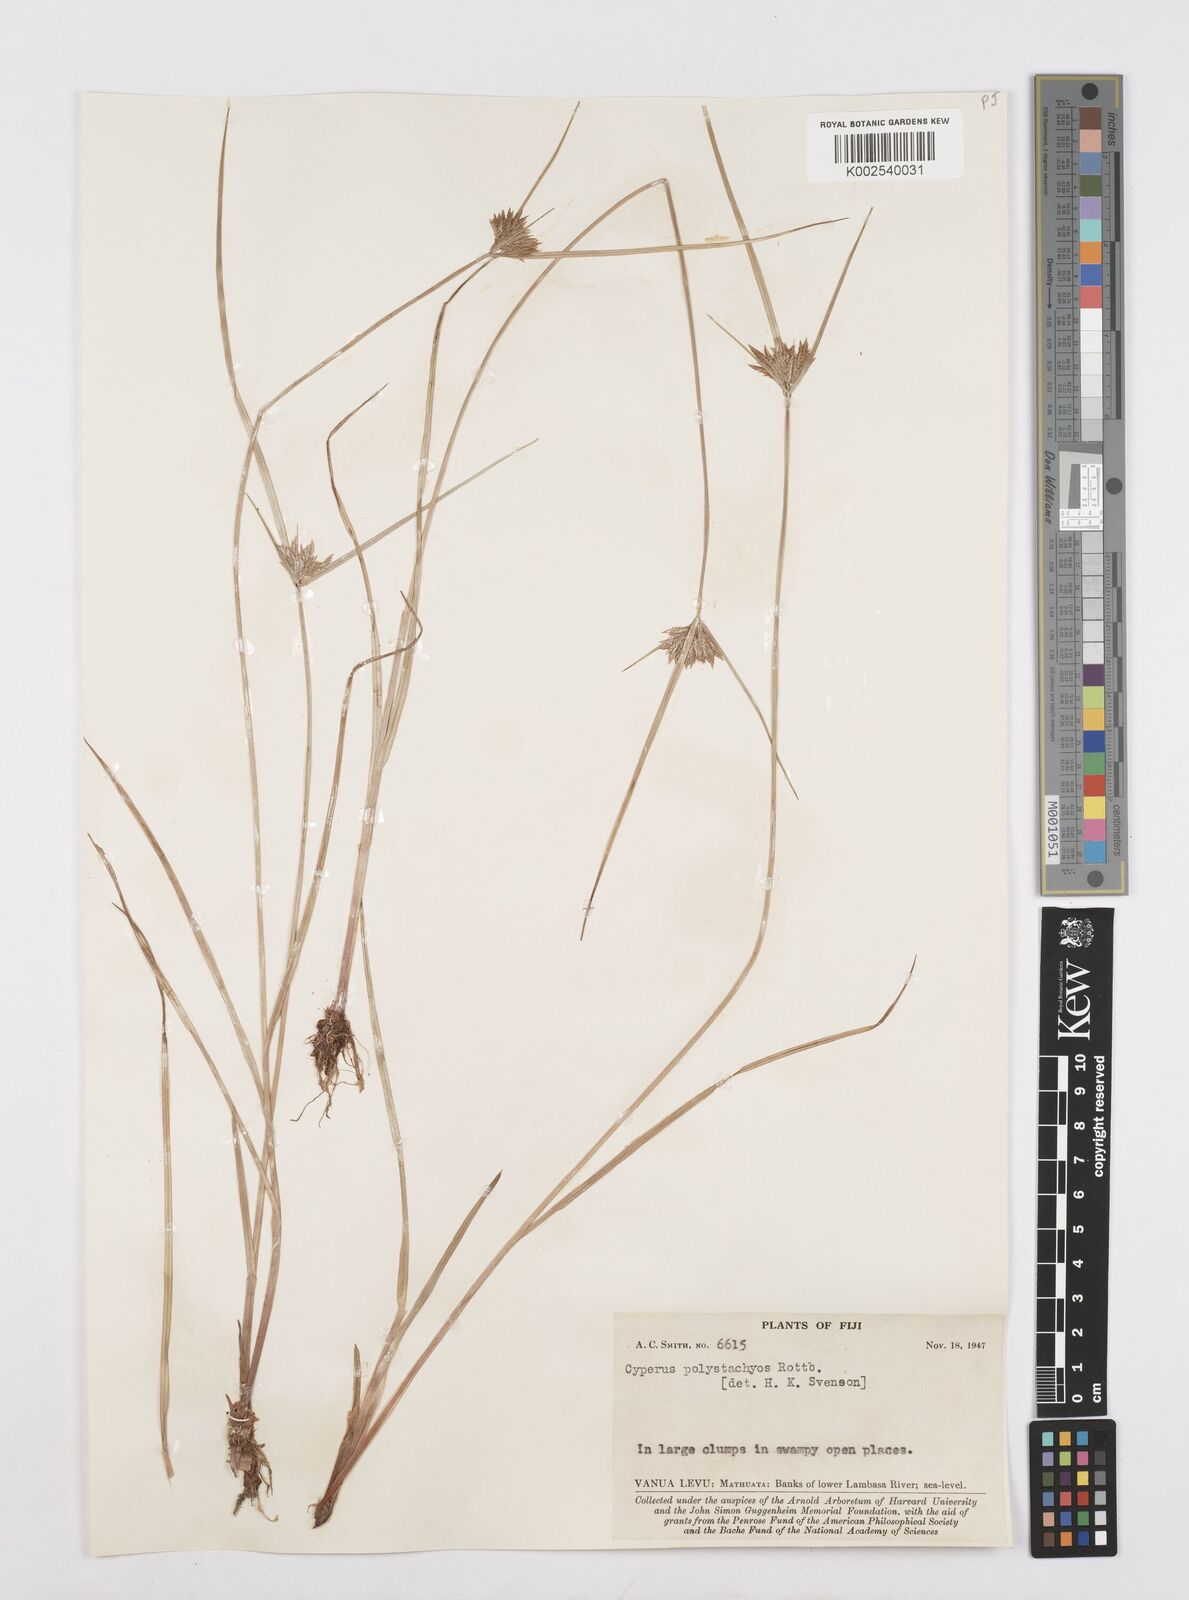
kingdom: Plantae
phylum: Tracheophyta
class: Liliopsida
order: Poales
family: Cyperaceae
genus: Cyperus
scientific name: Cyperus polystachyos
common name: Bunchy flat sedge
